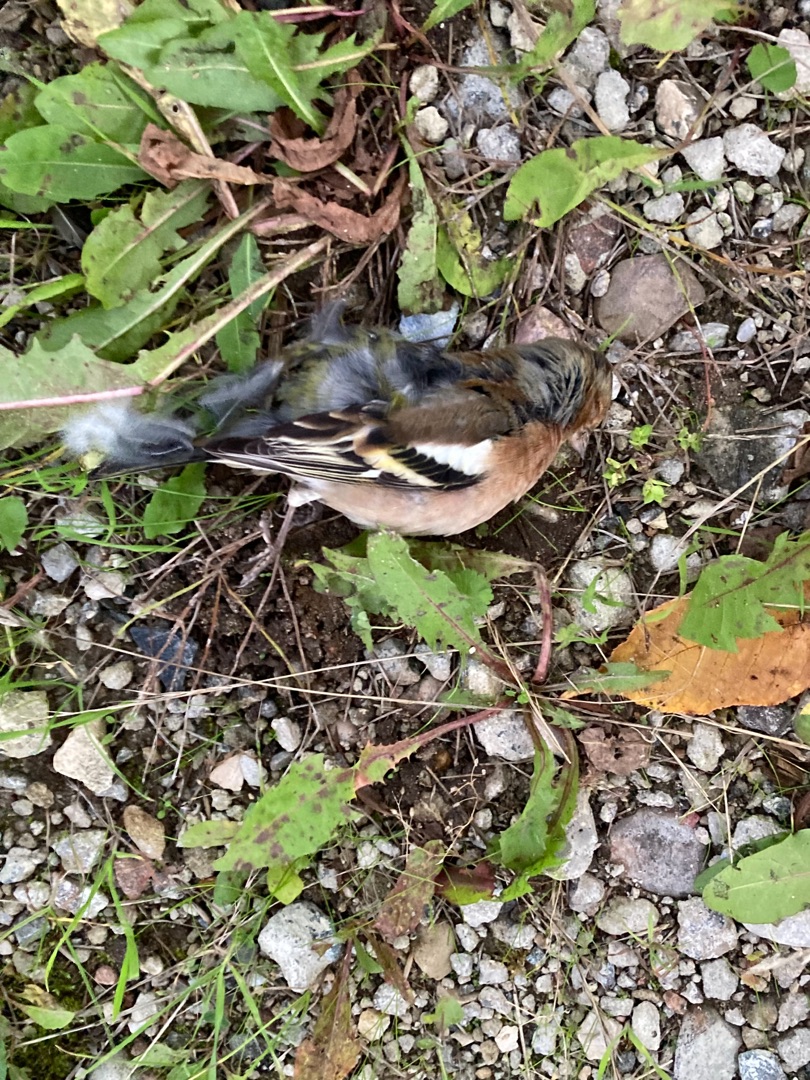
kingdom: Animalia
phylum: Chordata
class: Aves
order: Passeriformes
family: Fringillidae
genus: Fringilla
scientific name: Fringilla coelebs
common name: Bogfinke
